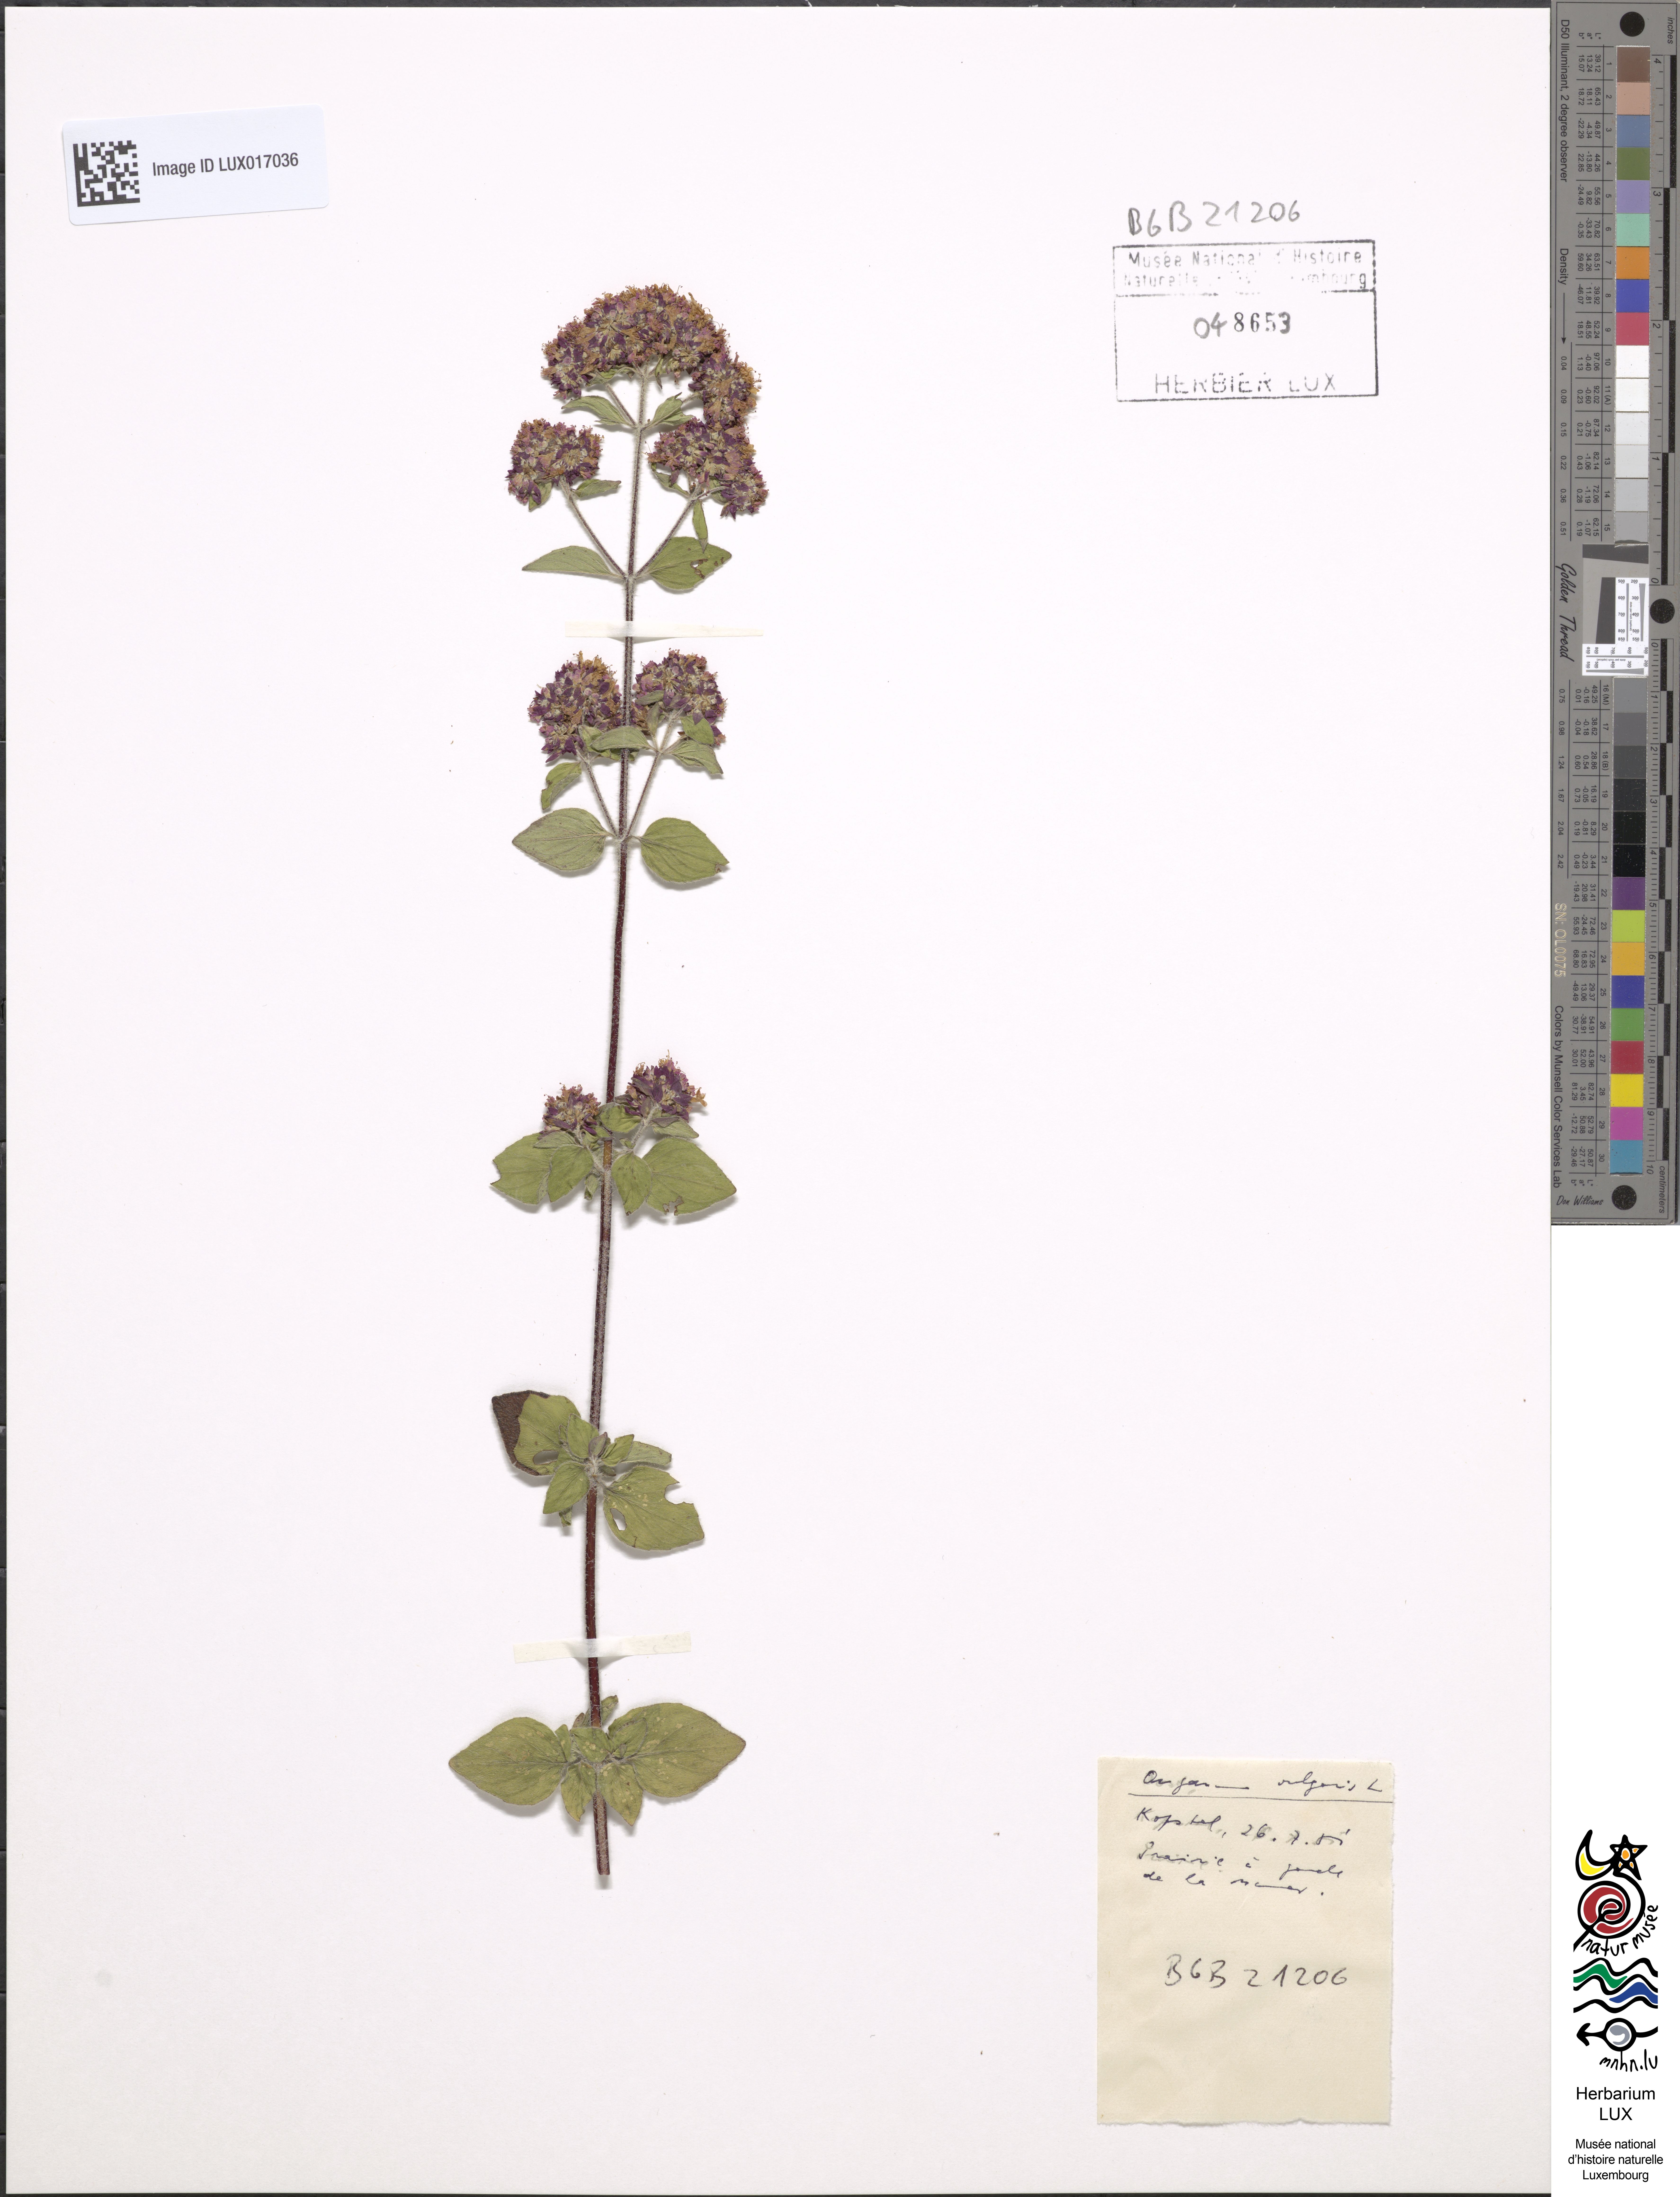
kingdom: Plantae
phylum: Tracheophyta
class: Magnoliopsida
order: Lamiales
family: Lamiaceae
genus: Origanum
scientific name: Origanum vulgare
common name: Wild marjoram
